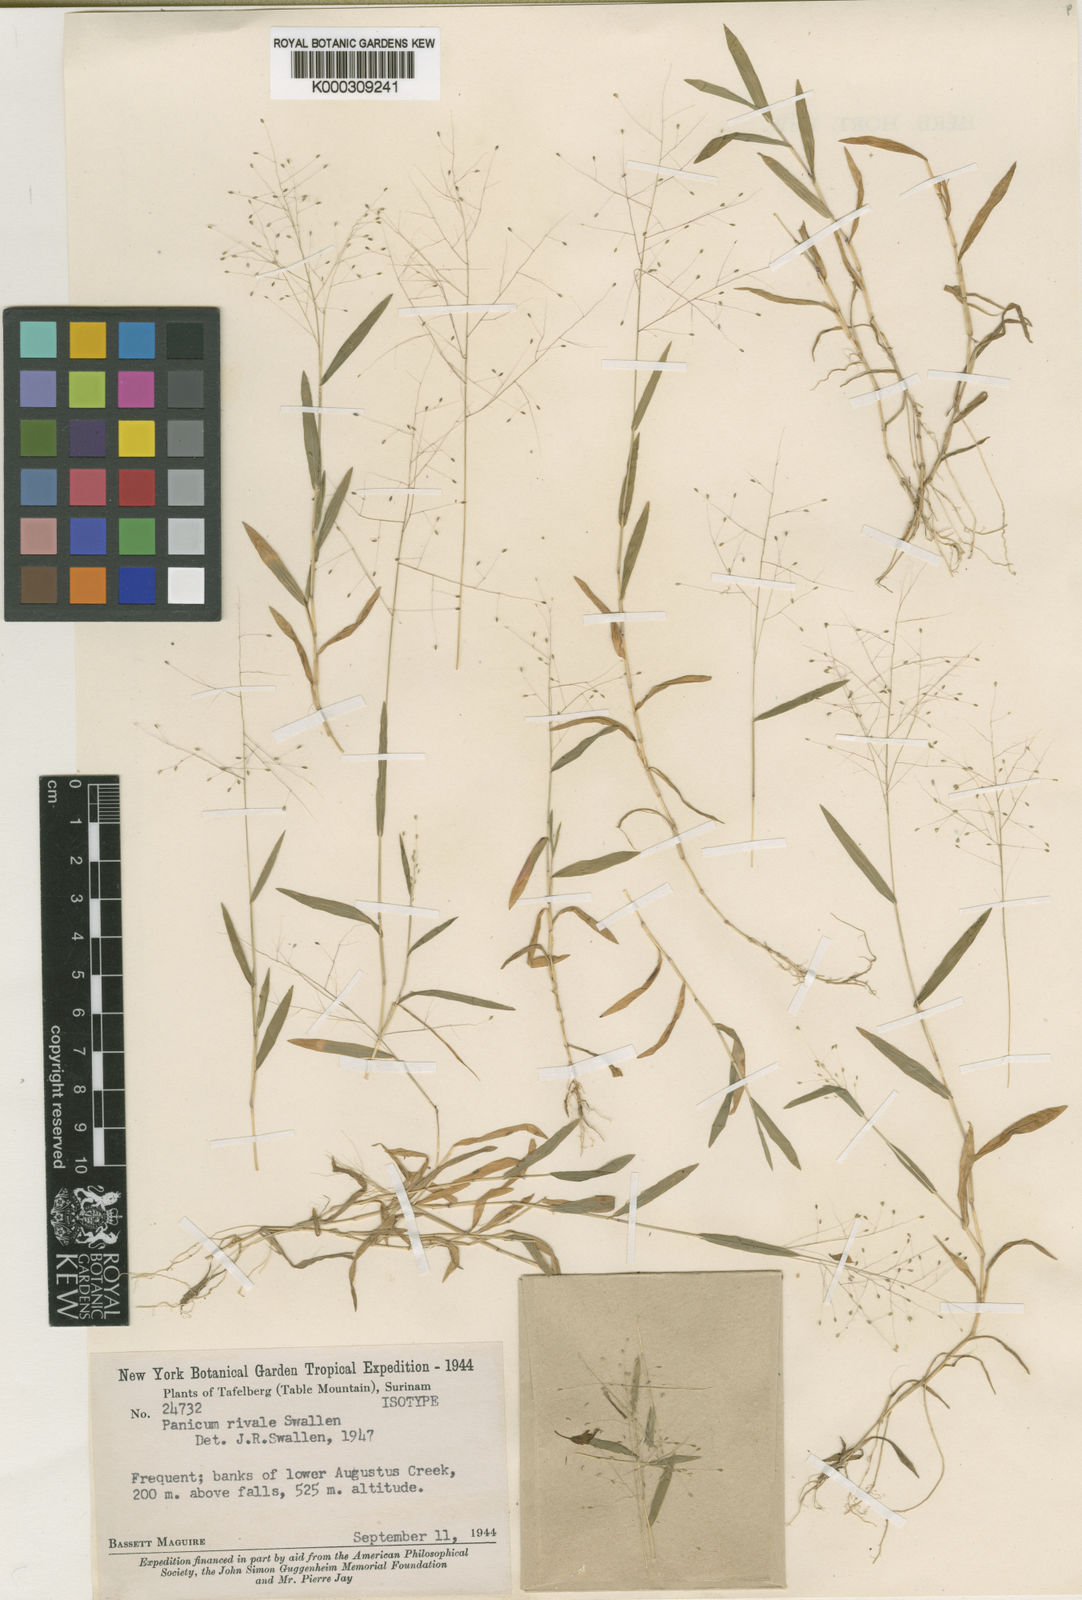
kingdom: Plantae
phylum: Tracheophyta
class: Liliopsida
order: Poales
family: Poaceae
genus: Trichanthecium
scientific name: Trichanthecium rivale
